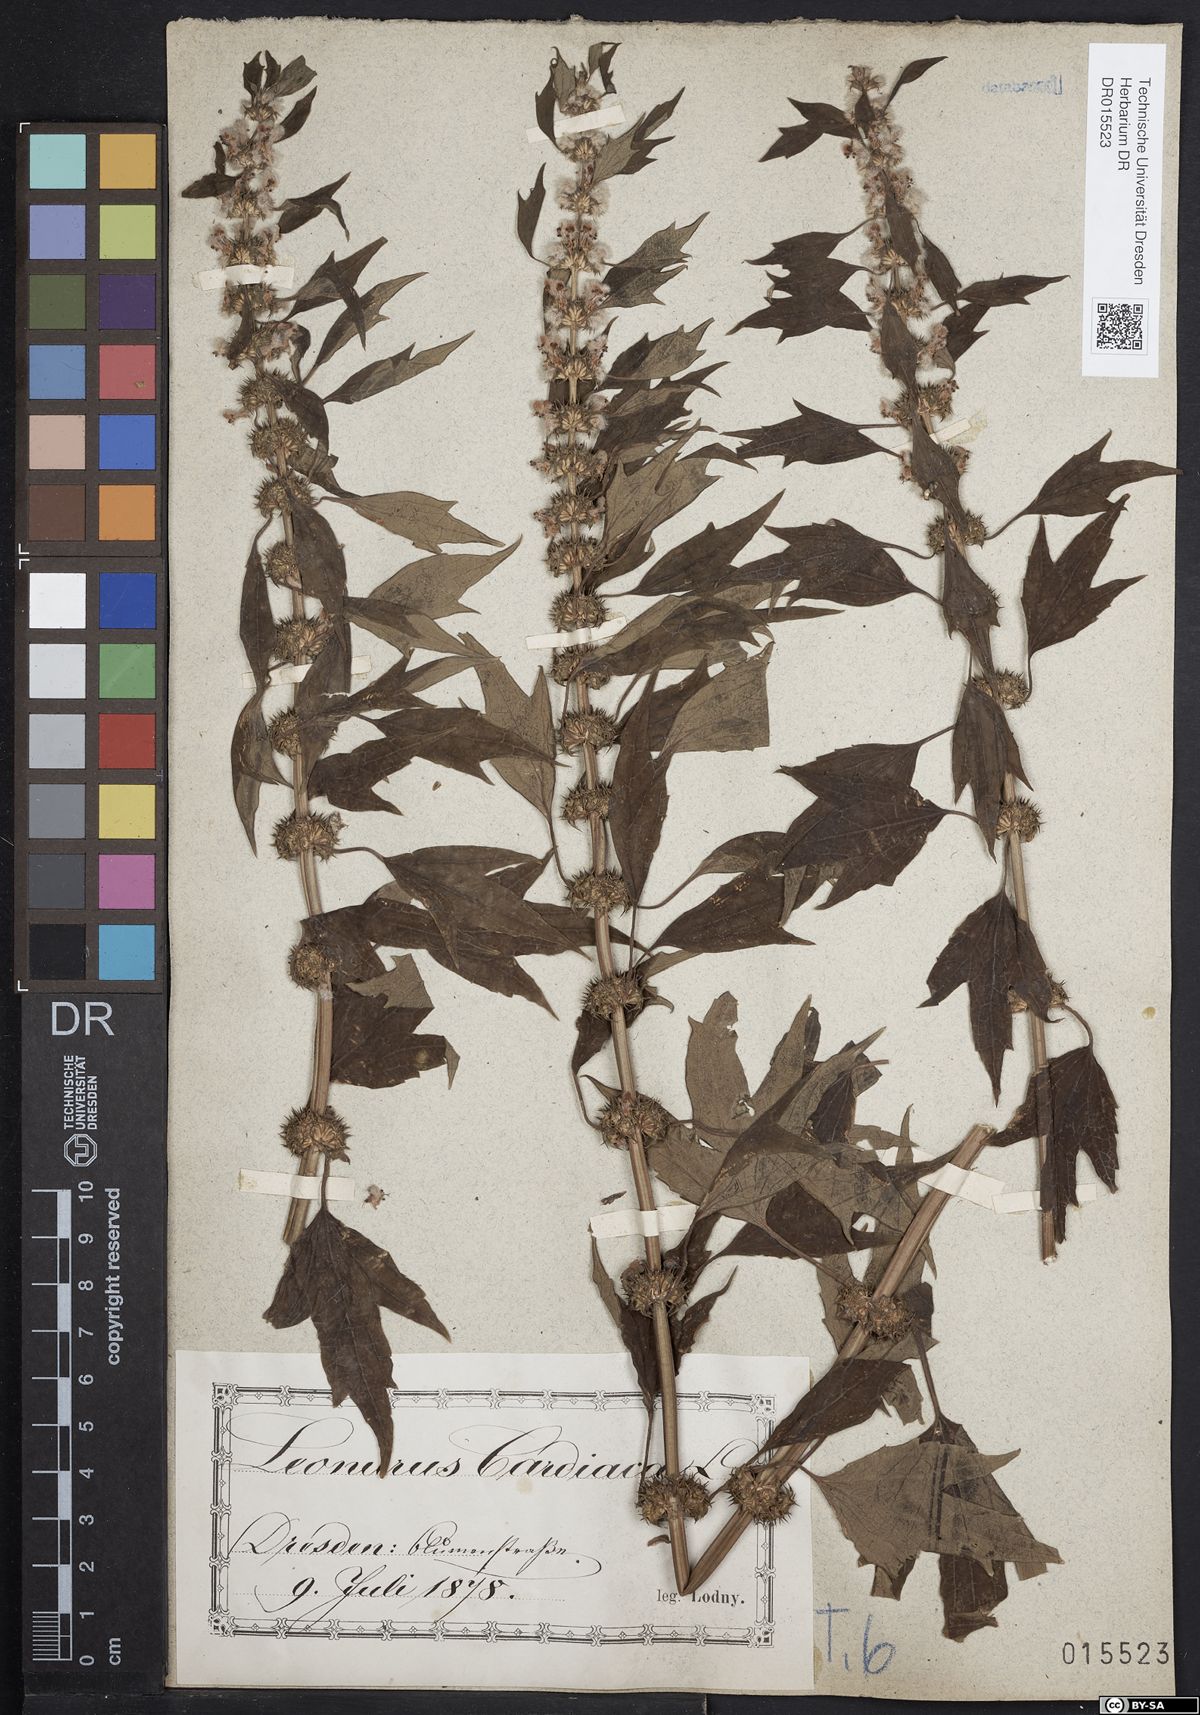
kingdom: Plantae
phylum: Tracheophyta
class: Magnoliopsida
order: Lamiales
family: Lamiaceae
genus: Leonurus
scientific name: Leonurus cardiaca
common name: Motherwort
